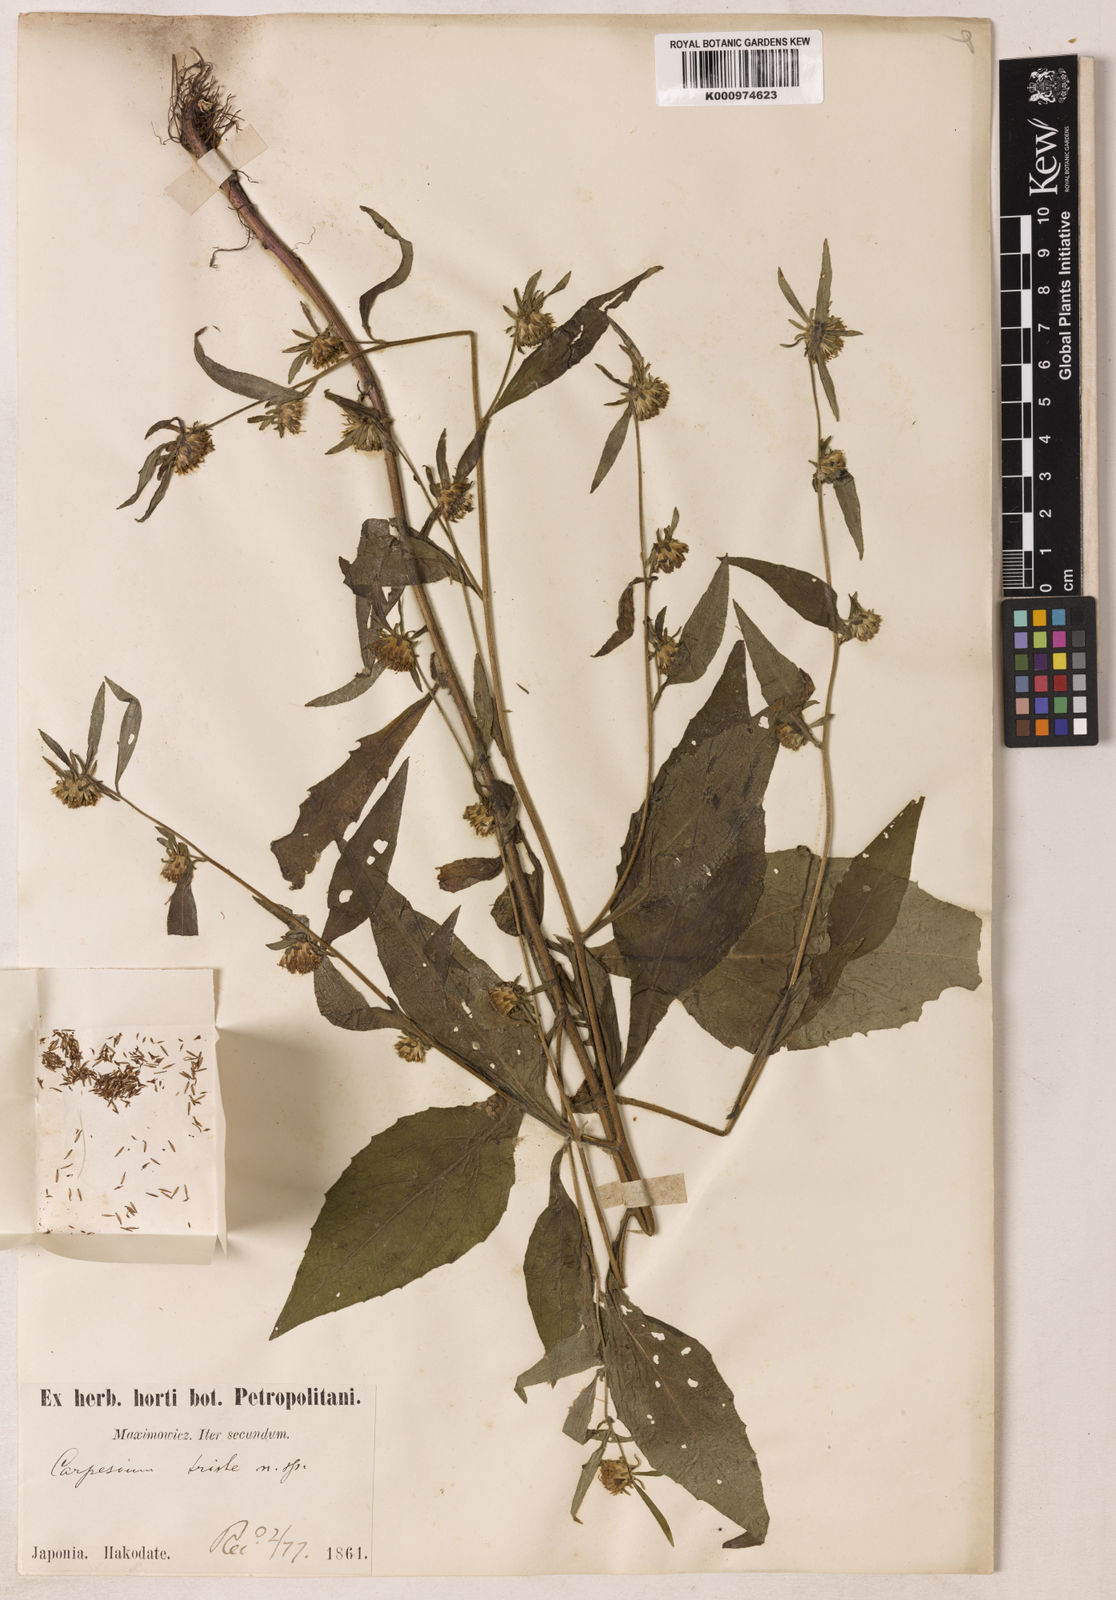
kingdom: Plantae
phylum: Tracheophyta
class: Magnoliopsida
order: Asterales
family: Asteraceae
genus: Carpesium
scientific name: Carpesium triste
